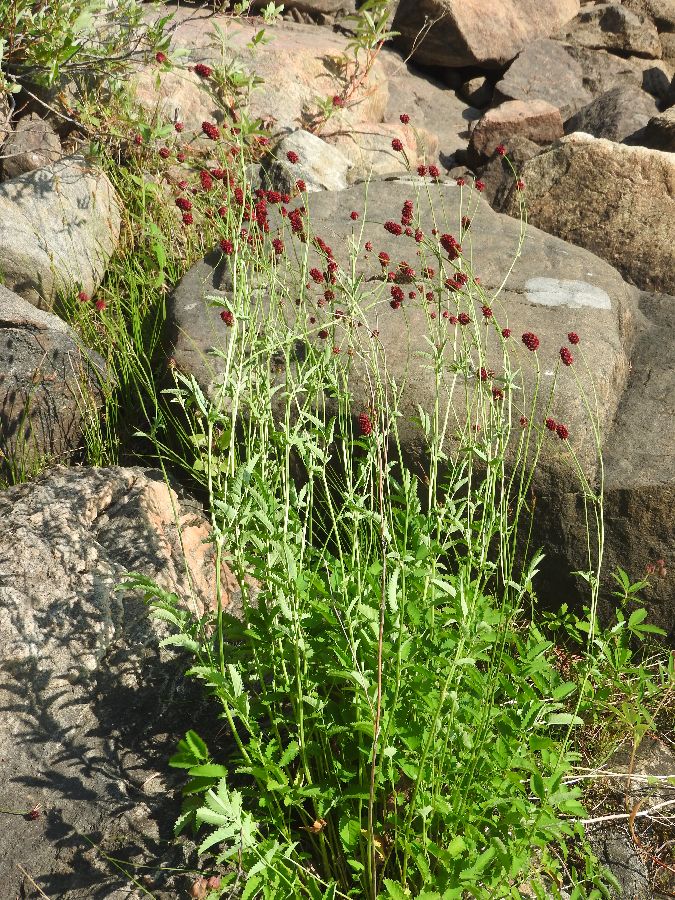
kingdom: Plantae
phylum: Tracheophyta
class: Magnoliopsida
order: Rosales
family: Rosaceae
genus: Sanguisorba
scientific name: Sanguisorba officinalis
